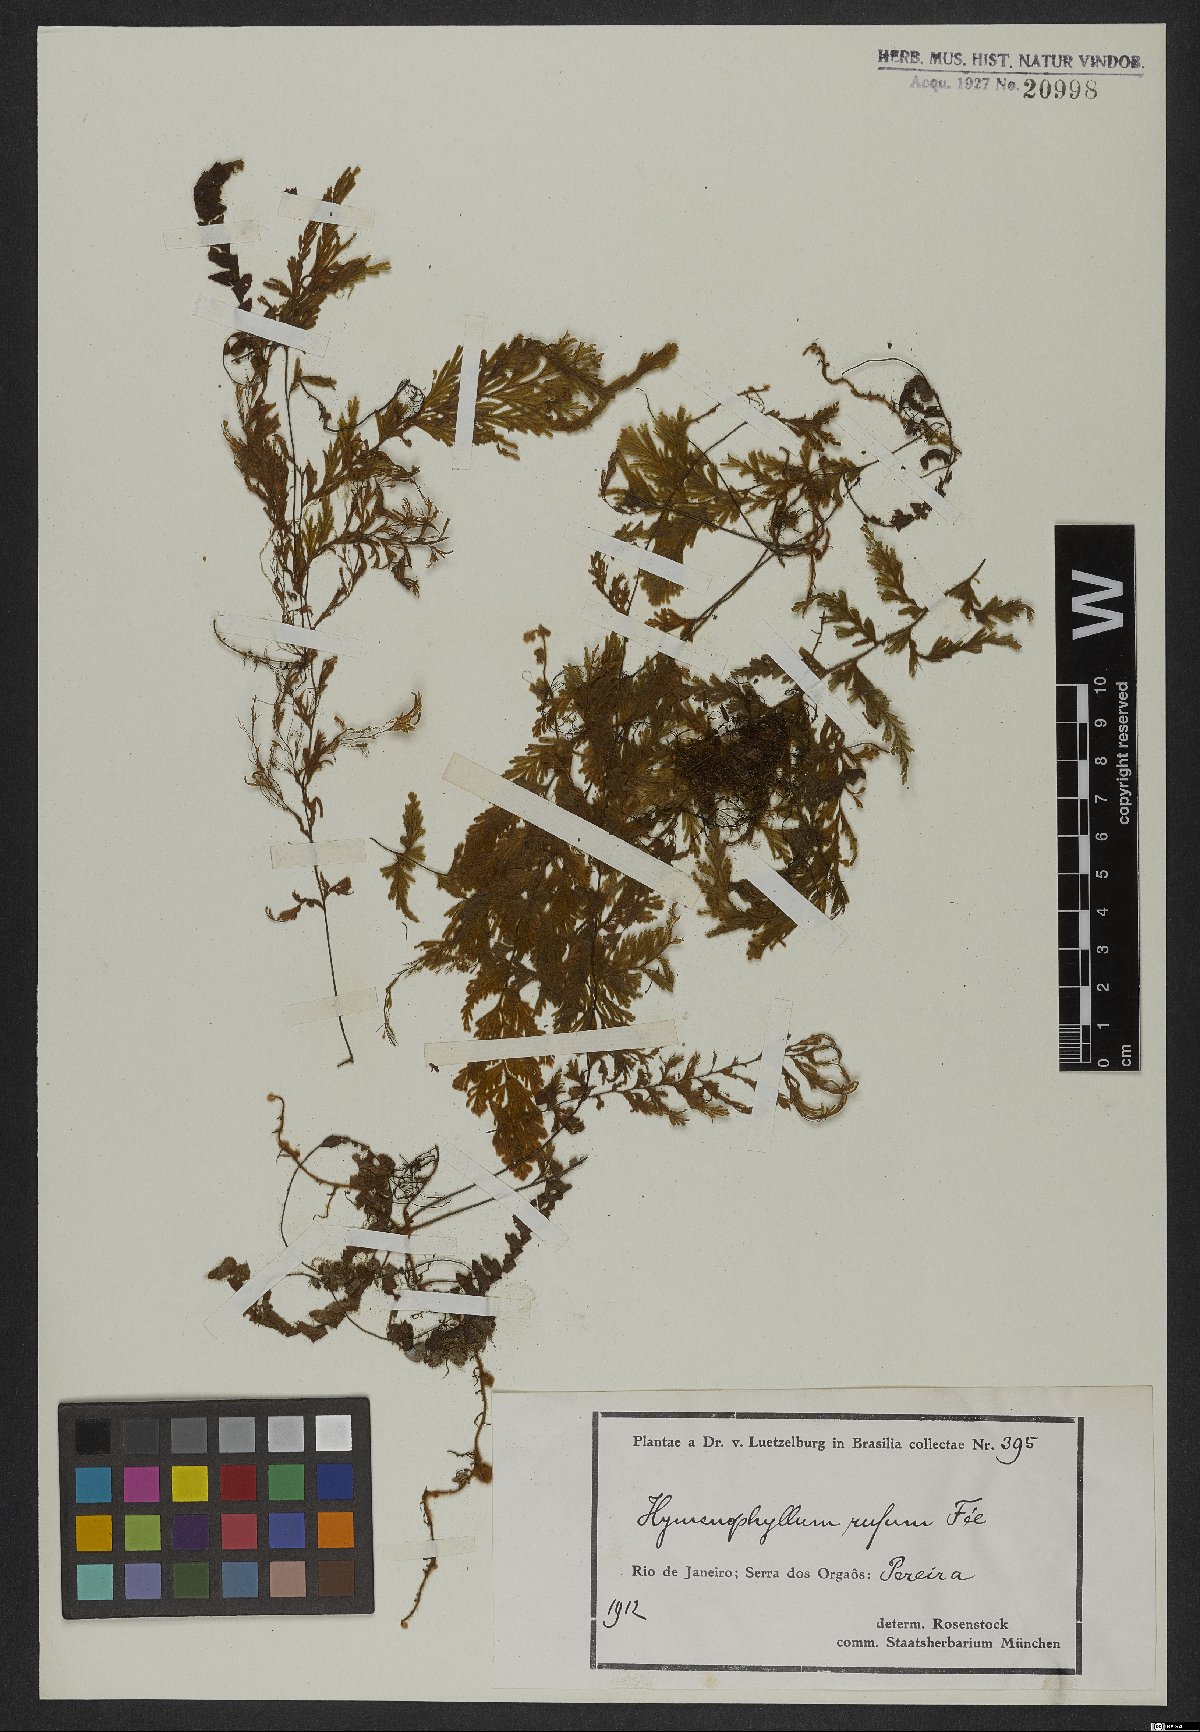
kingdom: Plantae
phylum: Tracheophyta
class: Polypodiopsida
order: Hymenophyllales
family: Hymenophyllaceae
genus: Hymenophyllum
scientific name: Hymenophyllum rufum
